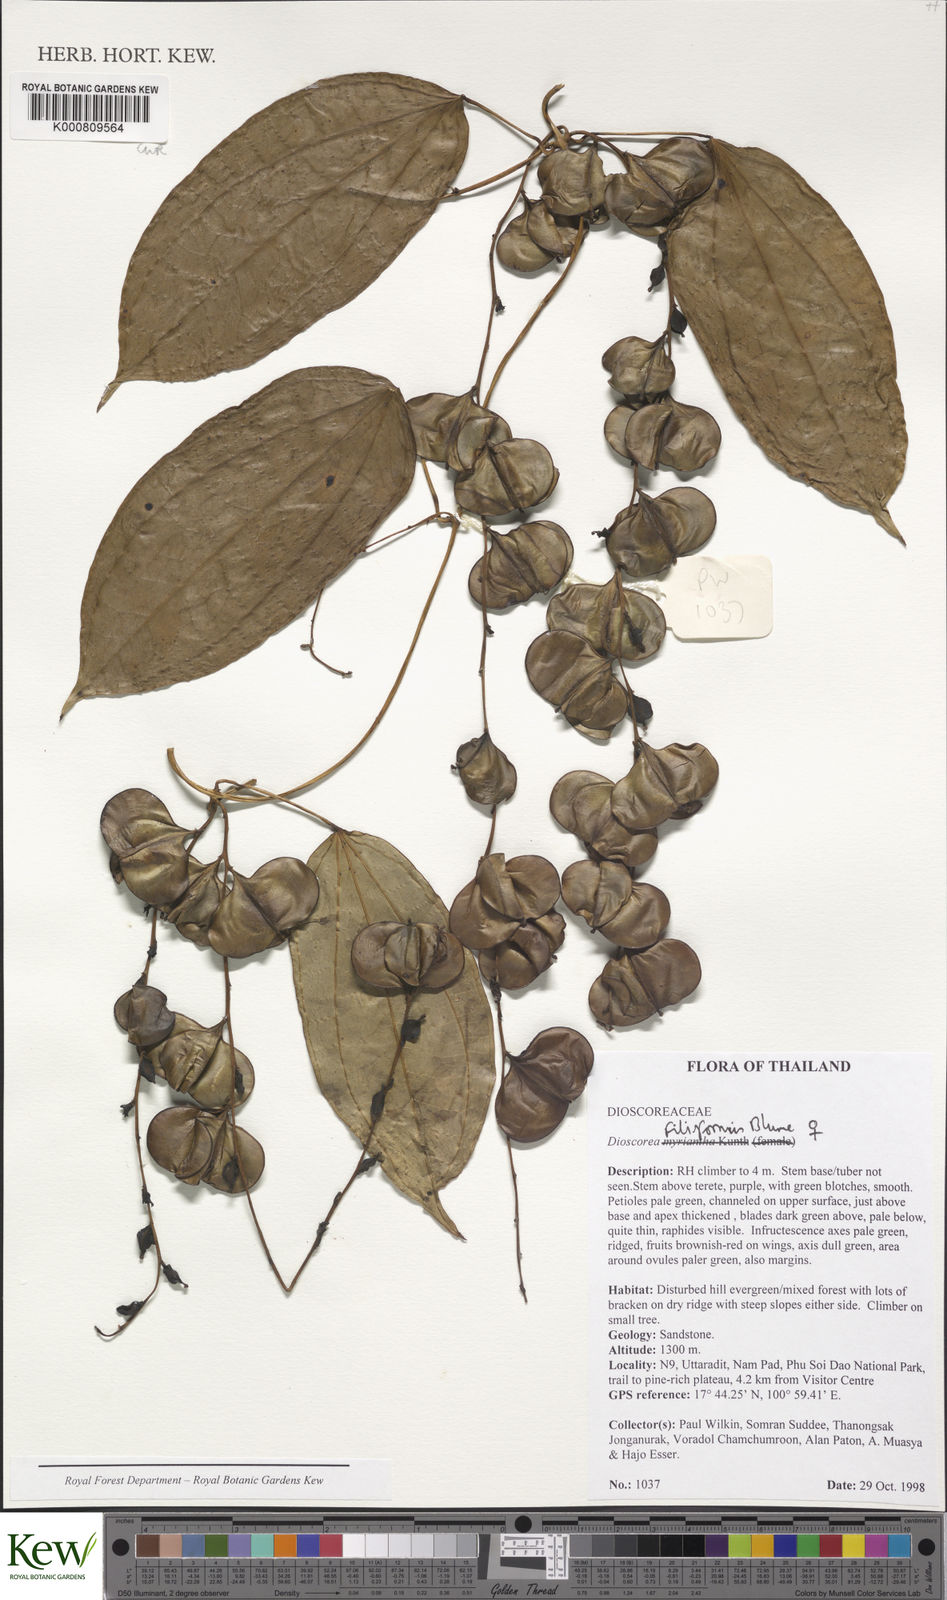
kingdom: Plantae
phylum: Tracheophyta
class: Liliopsida
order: Dioscoreales
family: Dioscoreaceae
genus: Dioscorea
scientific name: Dioscorea filiformis
